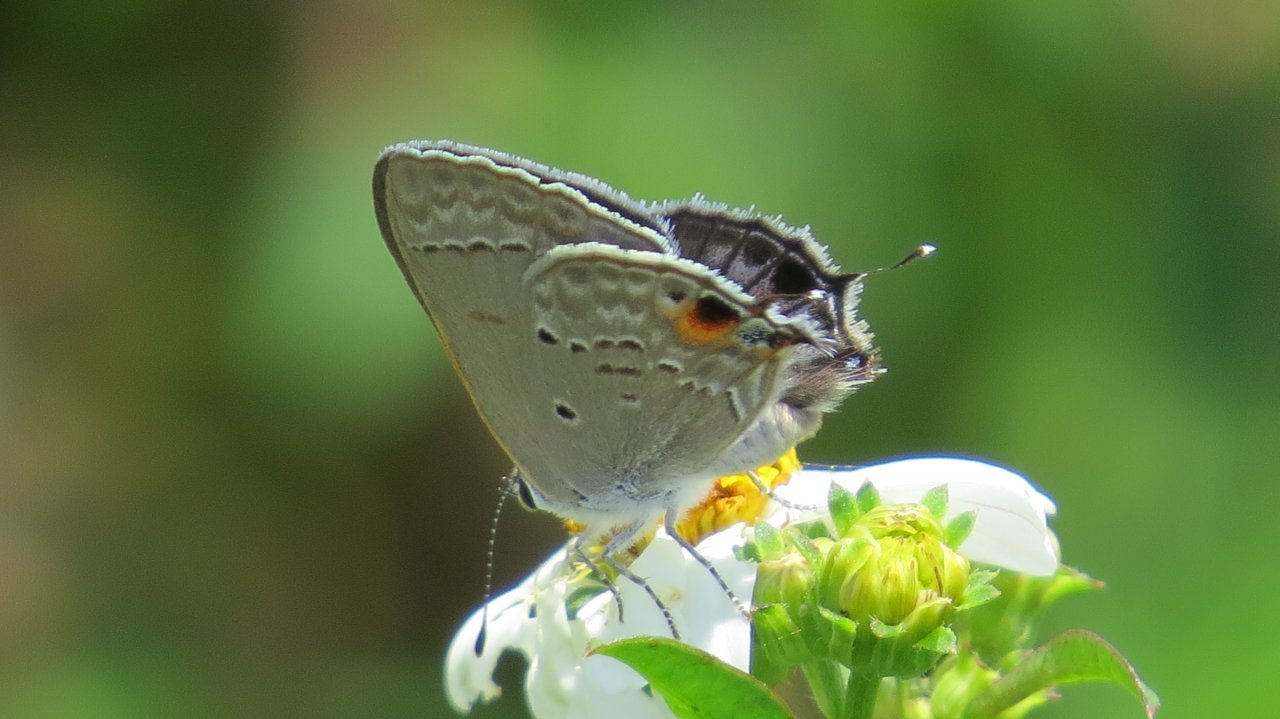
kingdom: Animalia
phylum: Arthropoda
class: Insecta
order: Lepidoptera
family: Lycaenidae
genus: Callicista
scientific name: Callicista columella
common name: Mallow Scrub-Hairstreak
